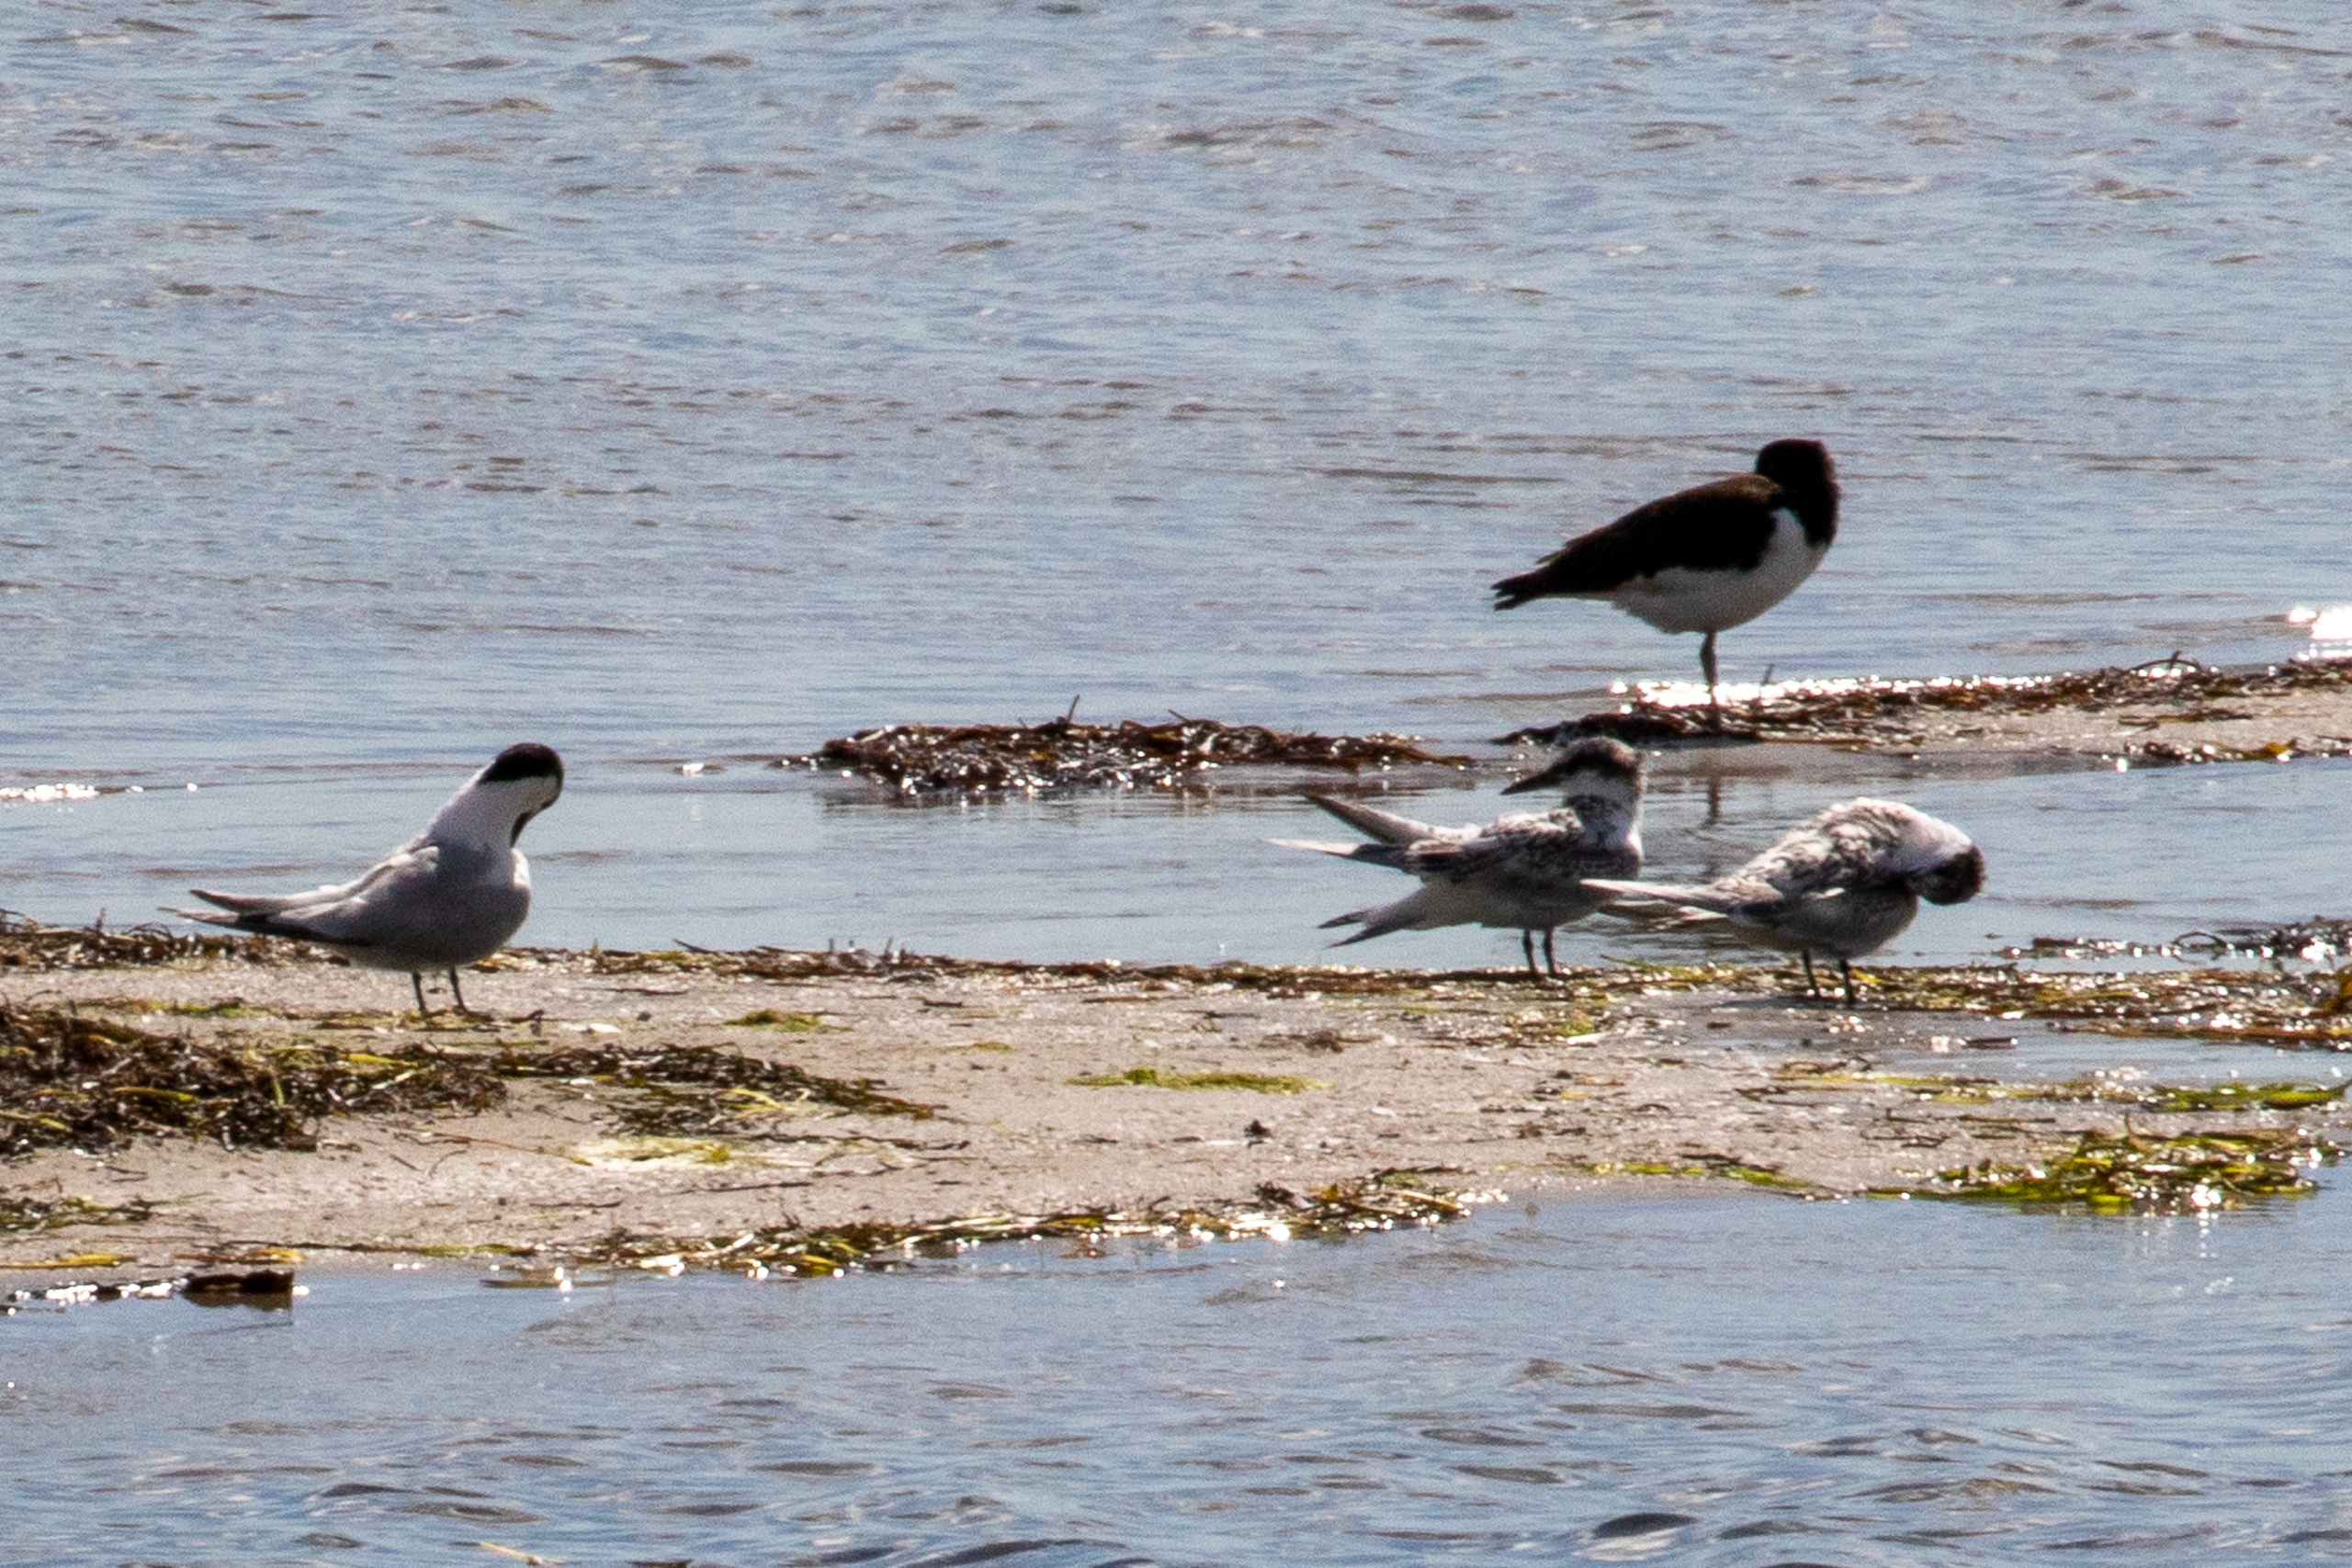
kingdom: Animalia
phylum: Chordata
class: Aves
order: Charadriiformes
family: Laridae
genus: Thalasseus
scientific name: Thalasseus sandvicensis
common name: Splitterne
